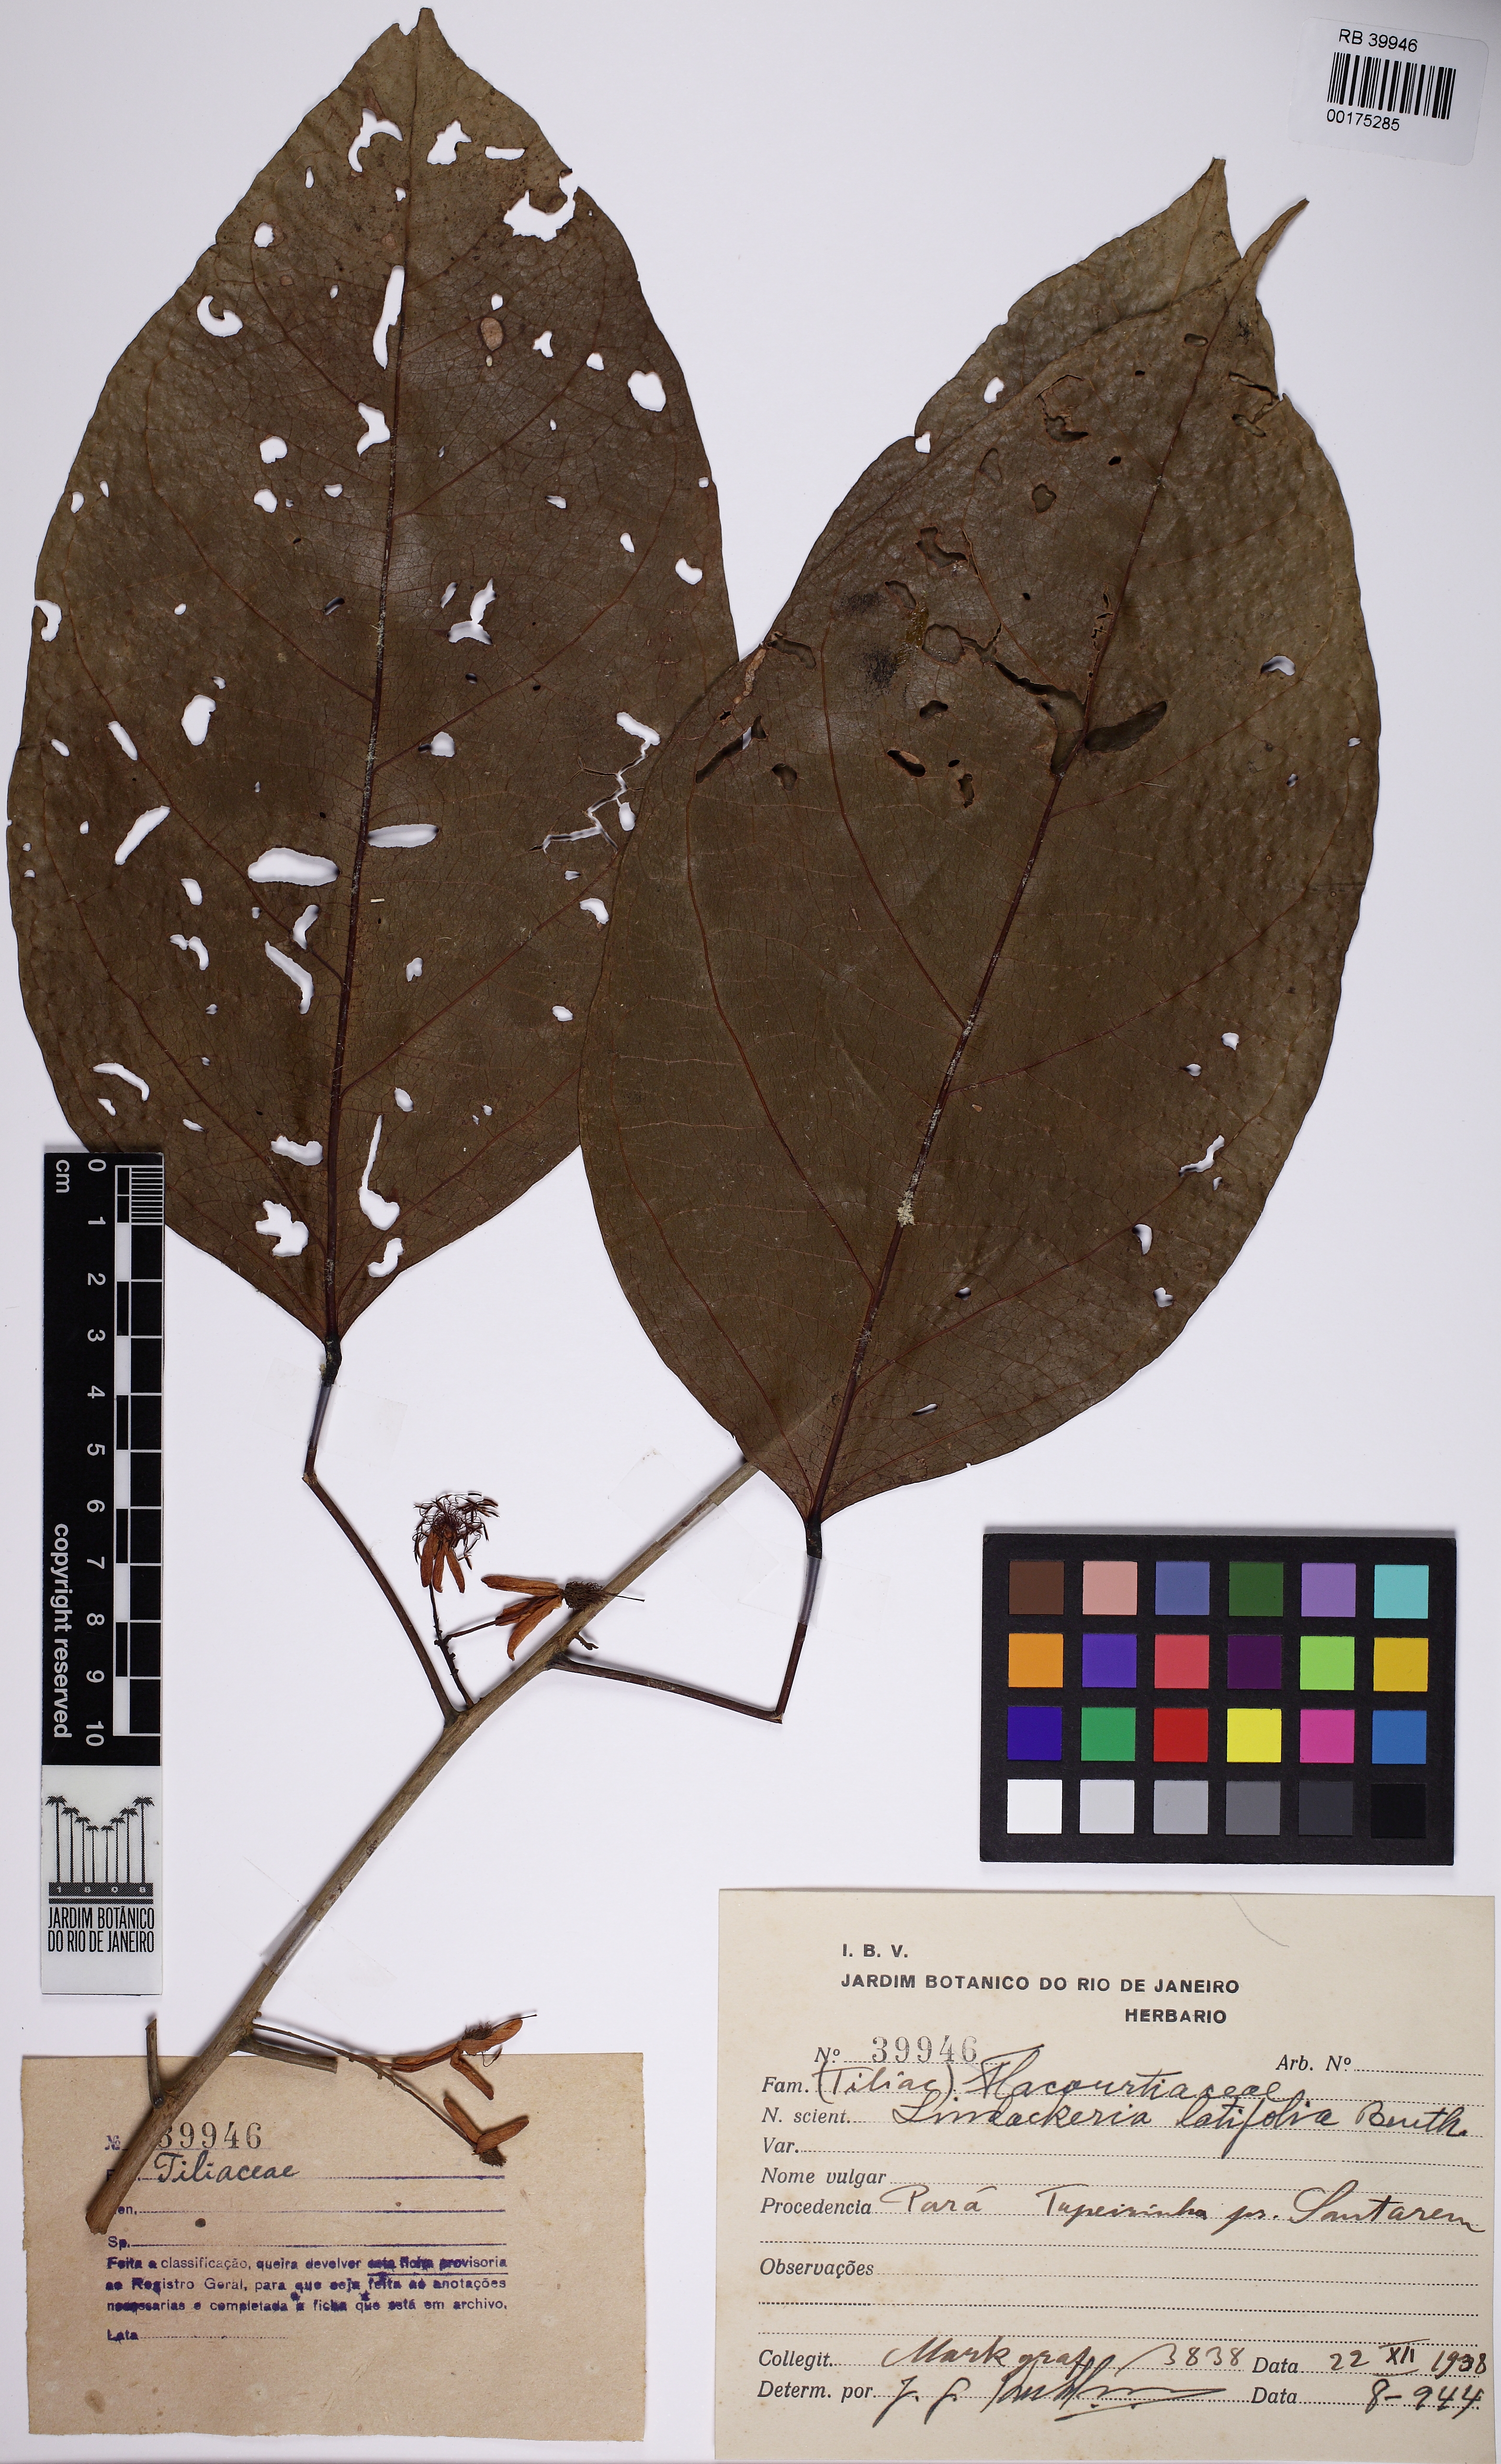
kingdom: Plantae
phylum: Tracheophyta
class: Magnoliopsida
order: Malpighiales
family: Achariaceae
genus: Lindackeria
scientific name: Lindackeria latifolia
